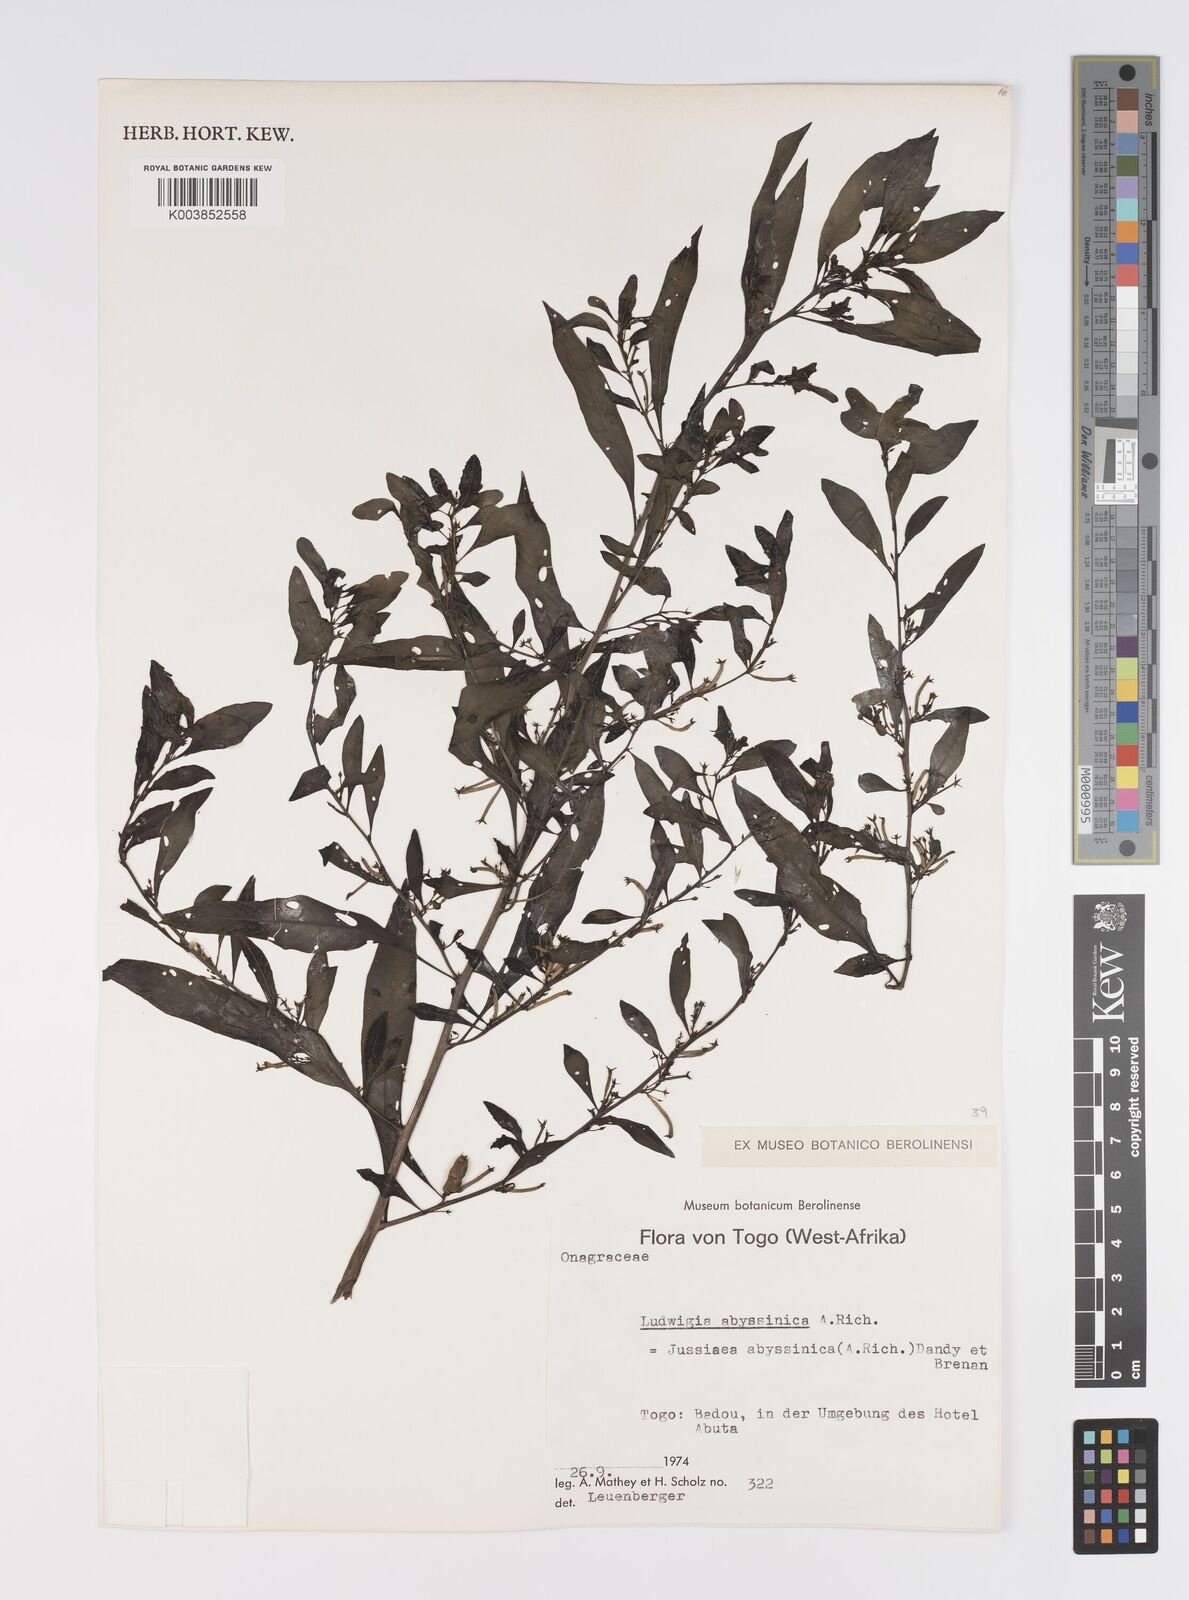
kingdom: Plantae
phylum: Tracheophyta
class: Magnoliopsida
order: Myrtales
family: Onagraceae
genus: Ludwigia
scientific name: Ludwigia abyssinica
